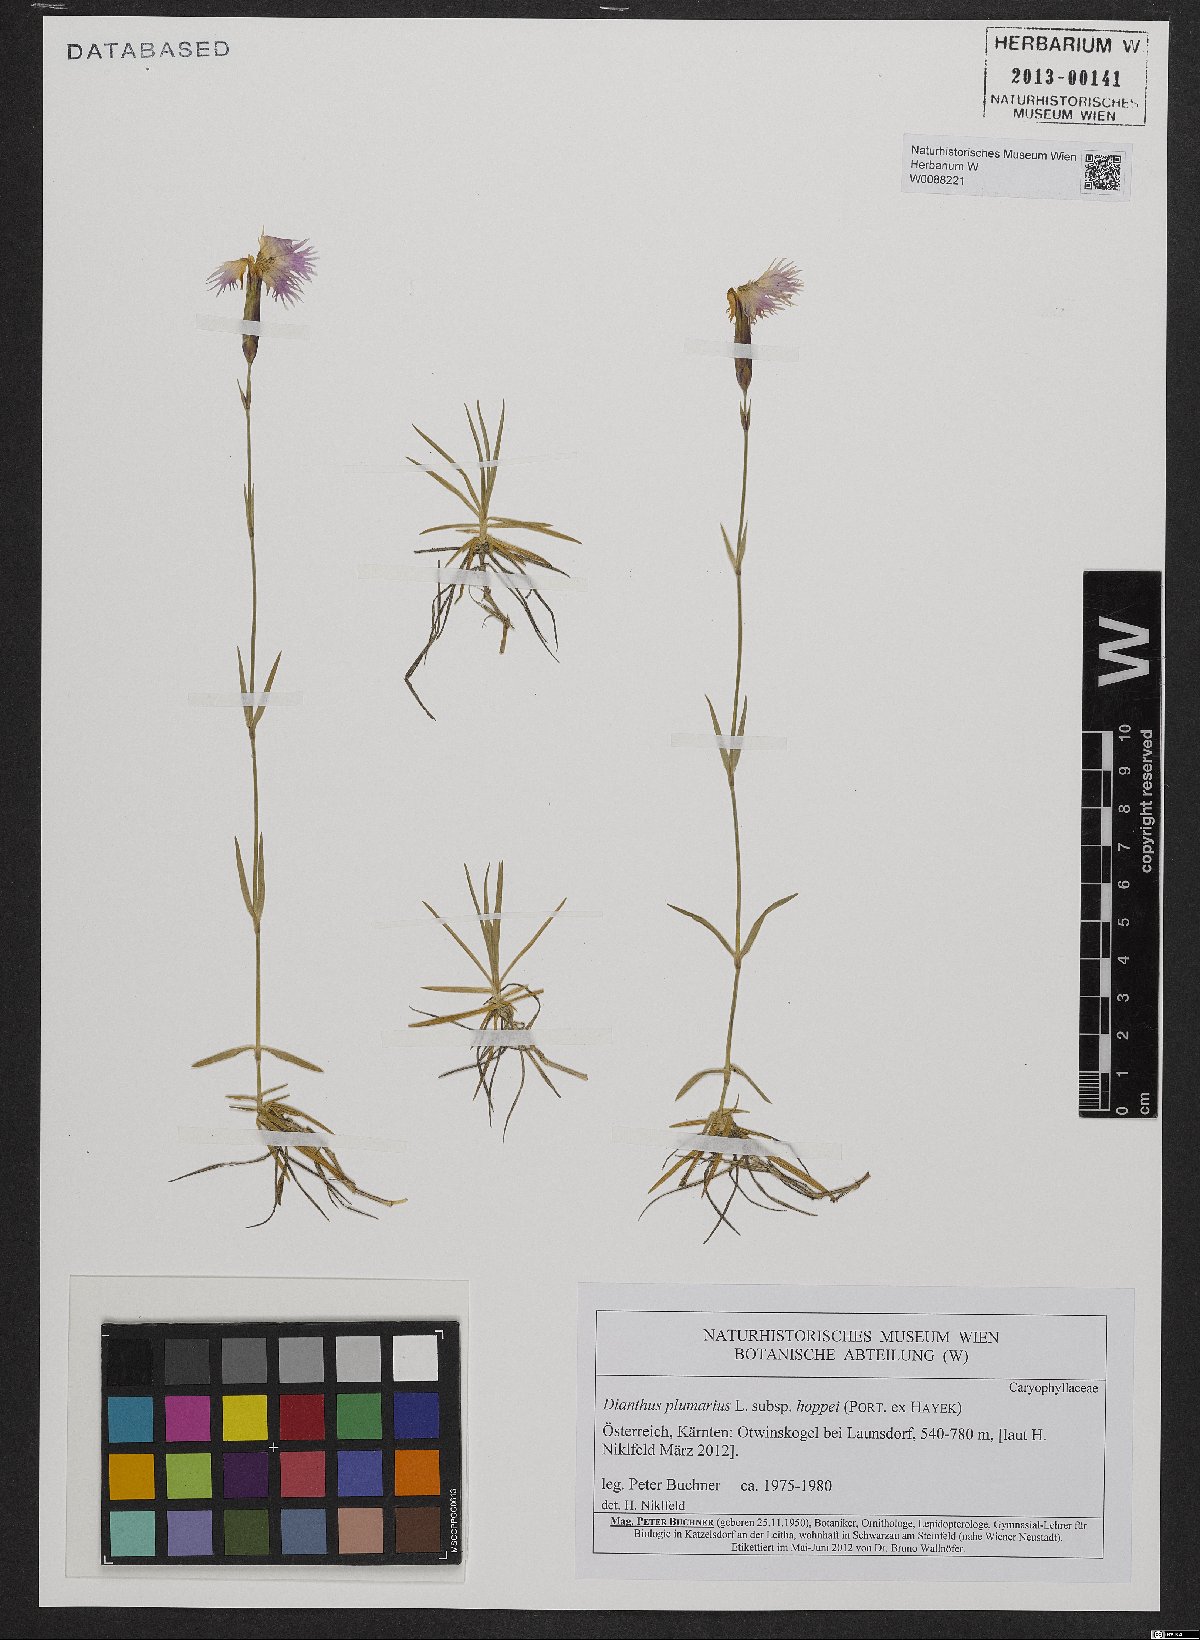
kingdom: Plantae
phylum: Tracheophyta
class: Magnoliopsida
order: Caryophyllales
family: Caryophyllaceae
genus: Dianthus
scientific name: Dianthus plumarius
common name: Pink
